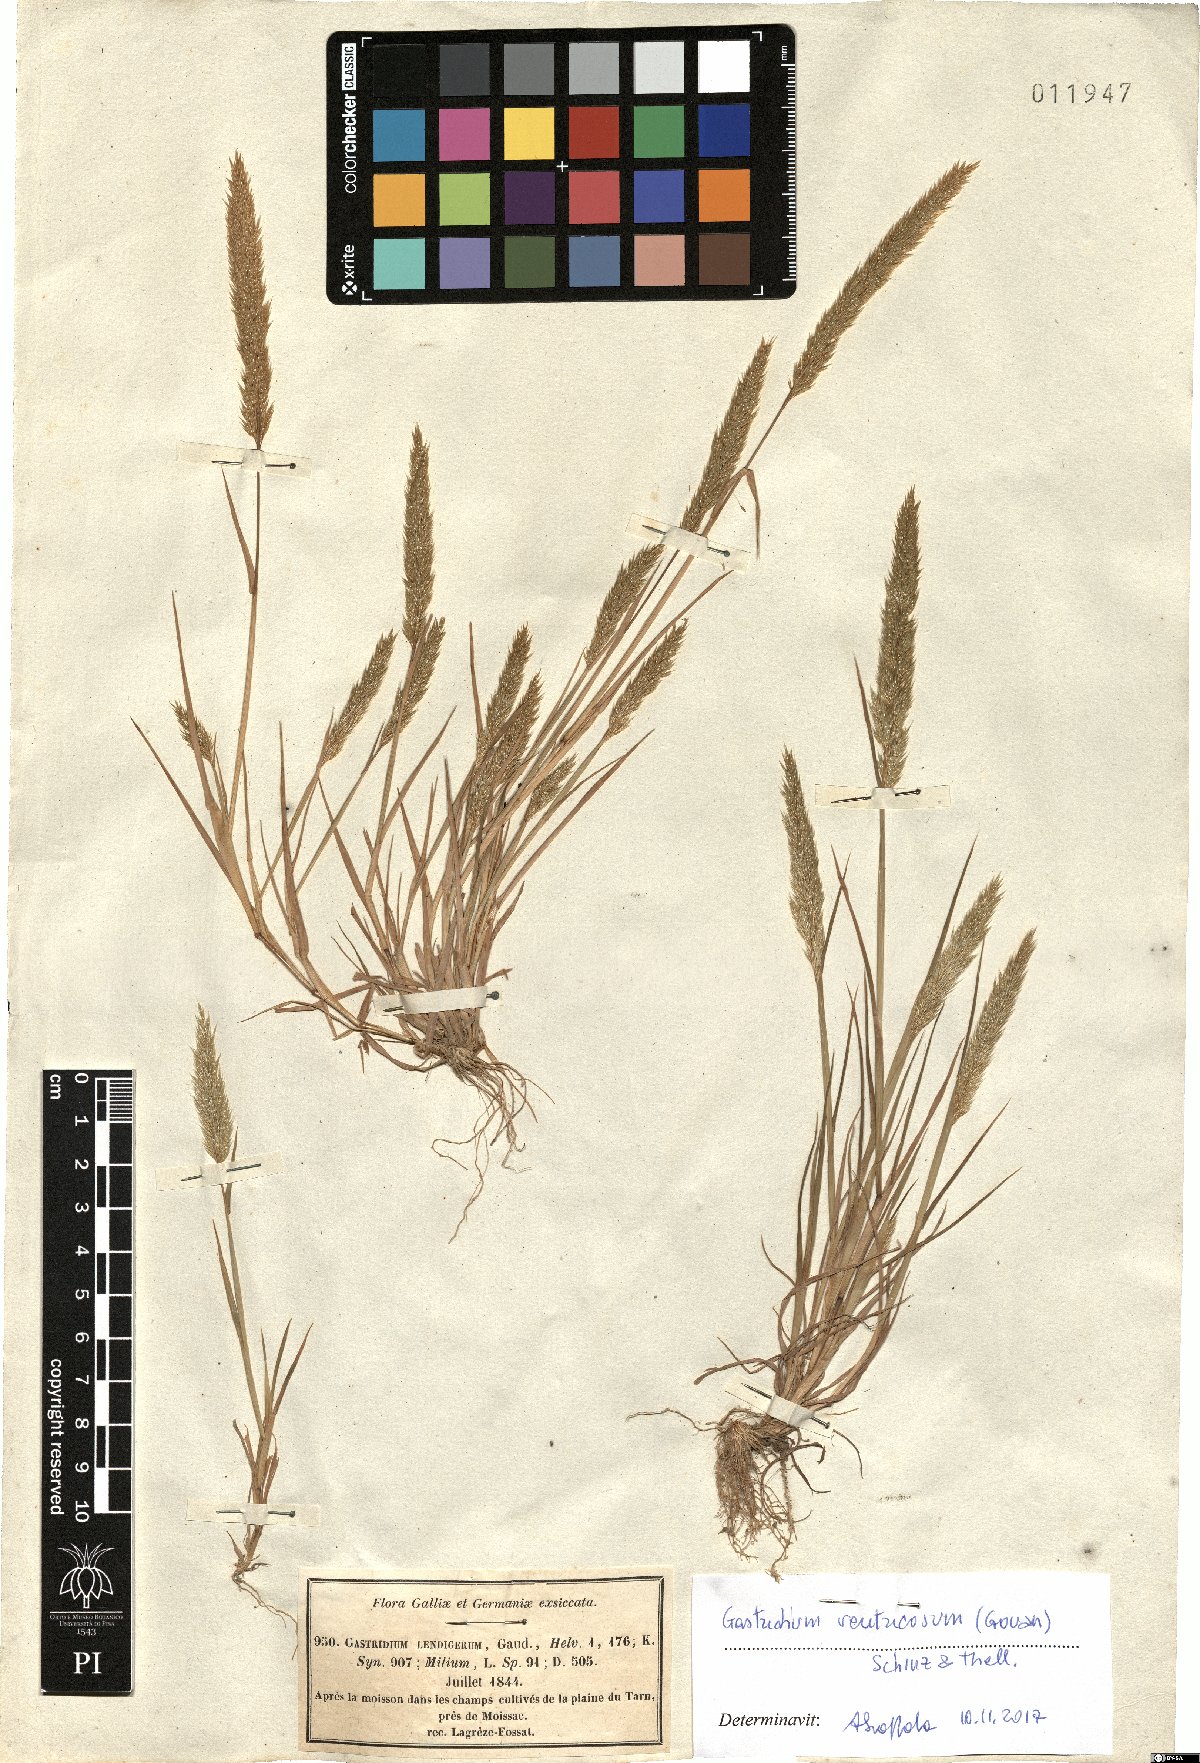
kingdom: Plantae
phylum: Tracheophyta
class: Liliopsida
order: Poales
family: Poaceae
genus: Gastridium
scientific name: Gastridium ventricosum
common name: Nit-grass
